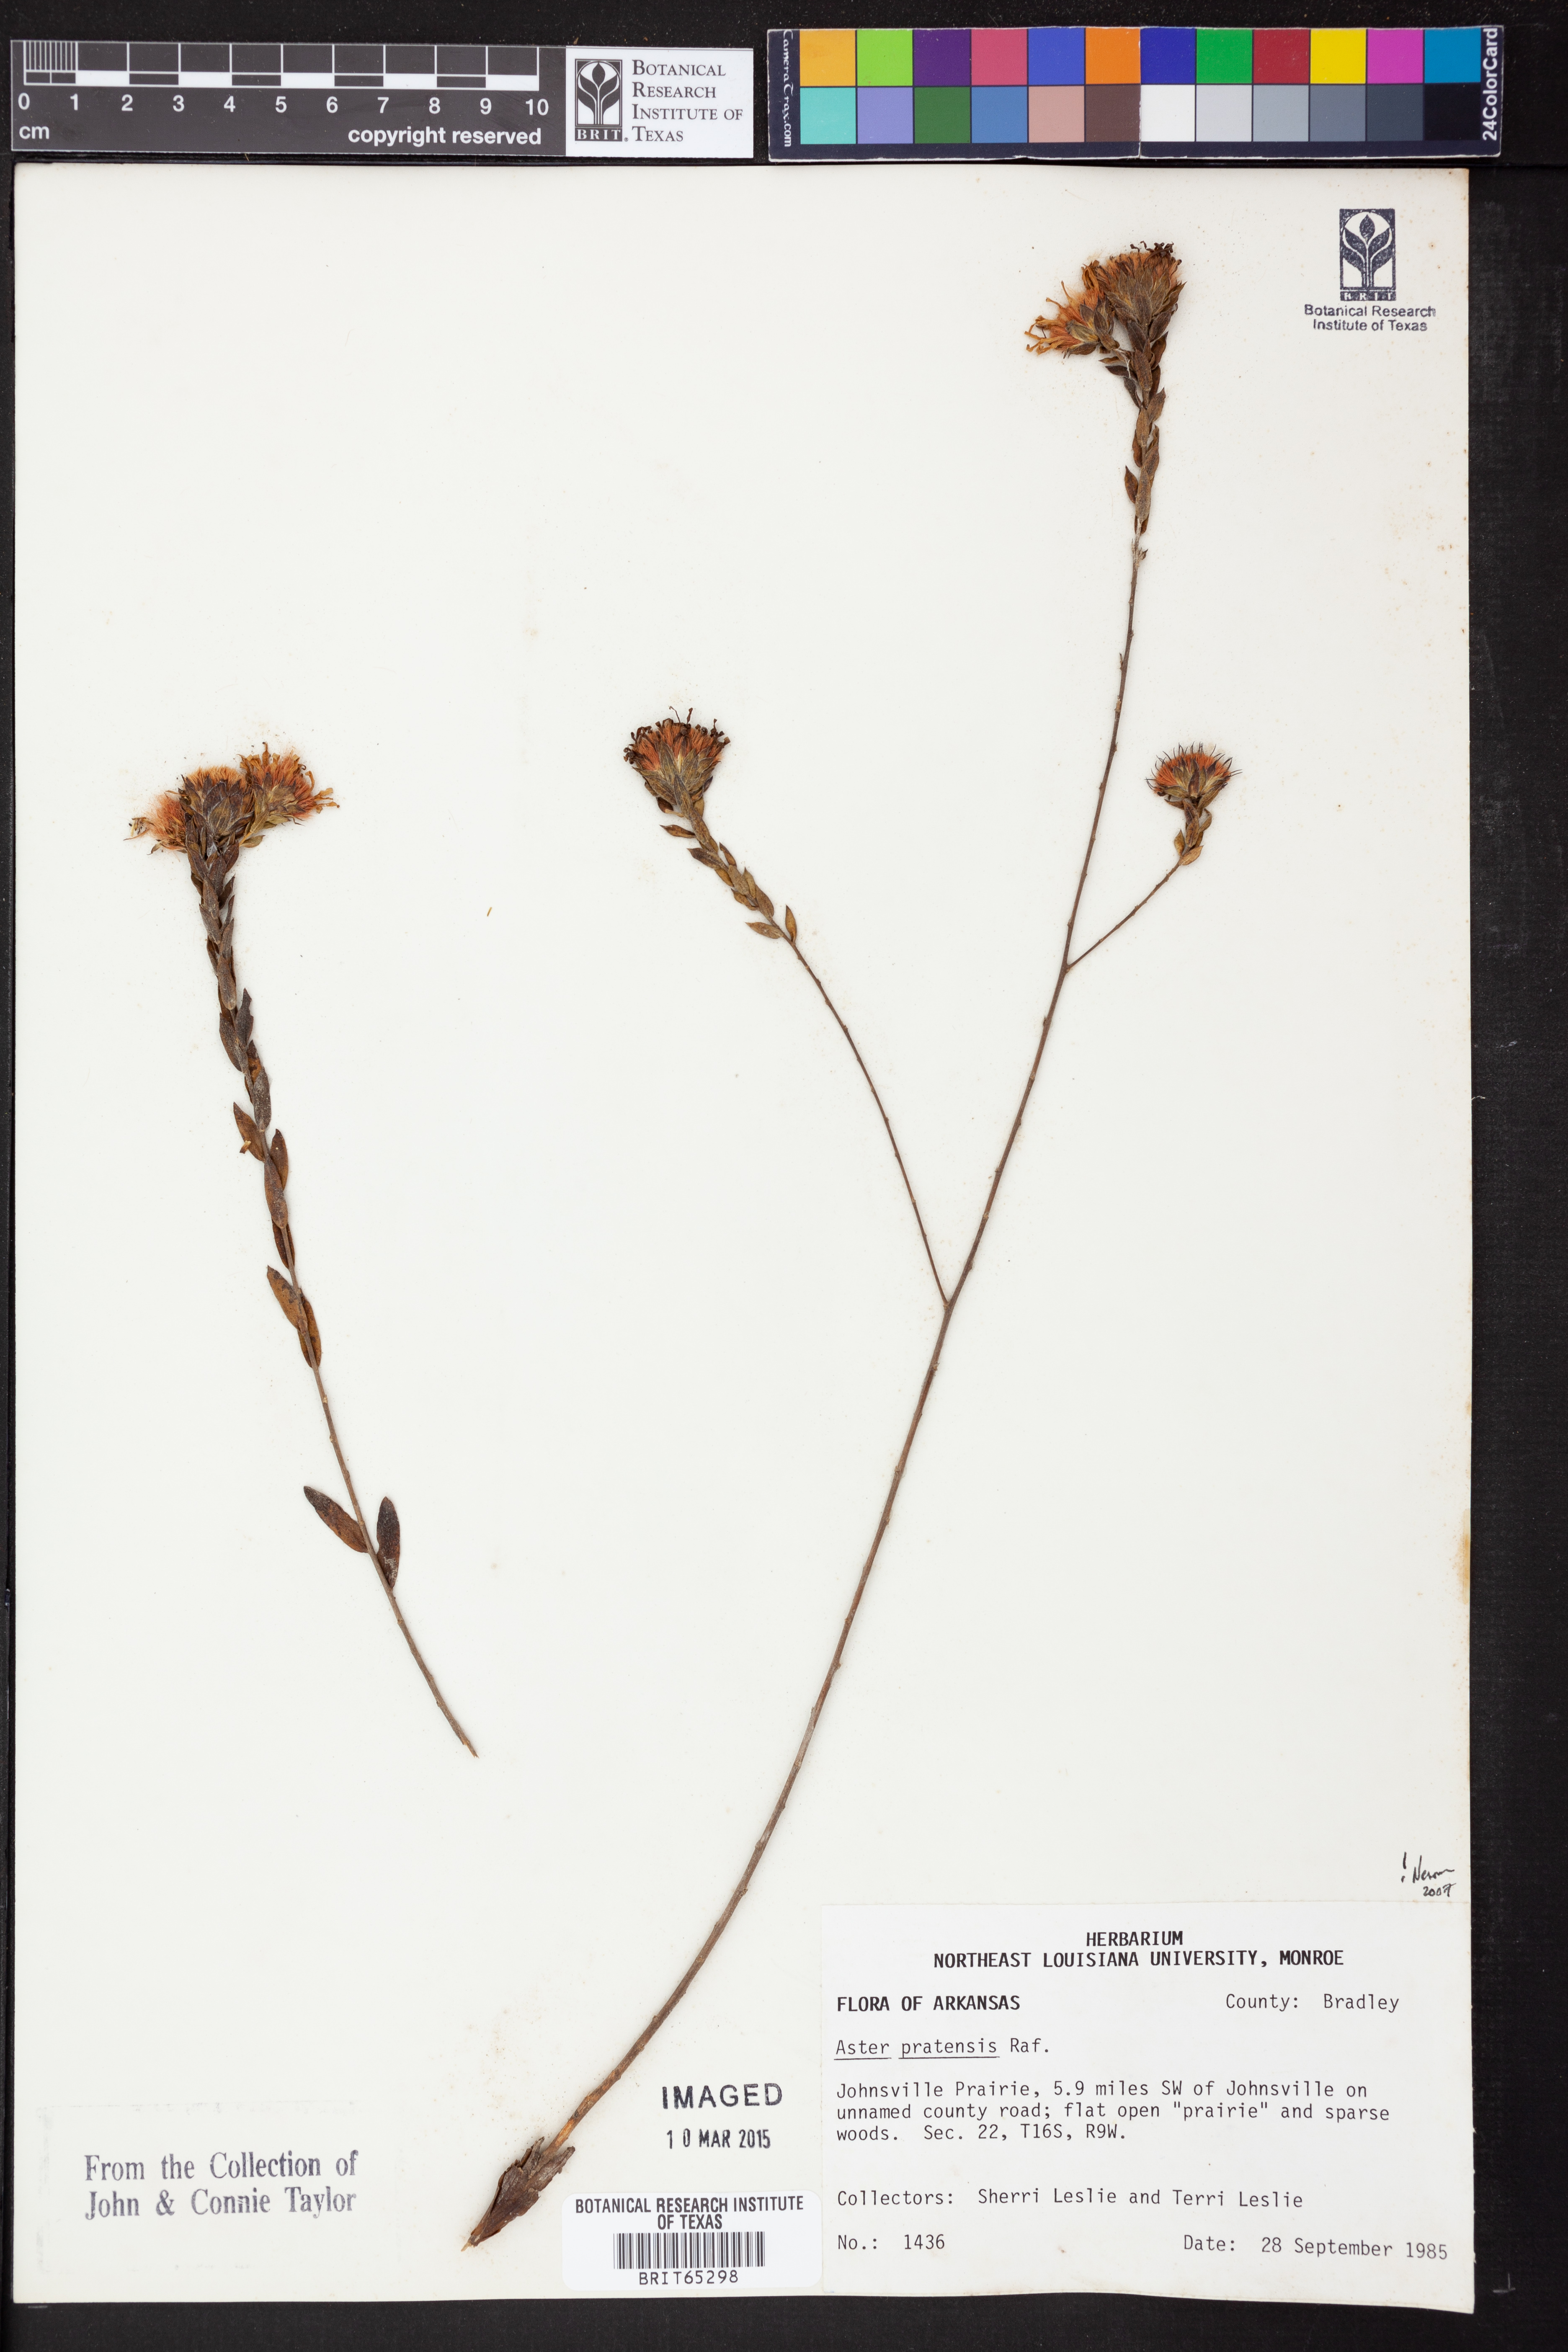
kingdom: Plantae
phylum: Tracheophyta
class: Magnoliopsida
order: Asterales
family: Asteraceae
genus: Symphyotrichum
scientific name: Symphyotrichum pratense
